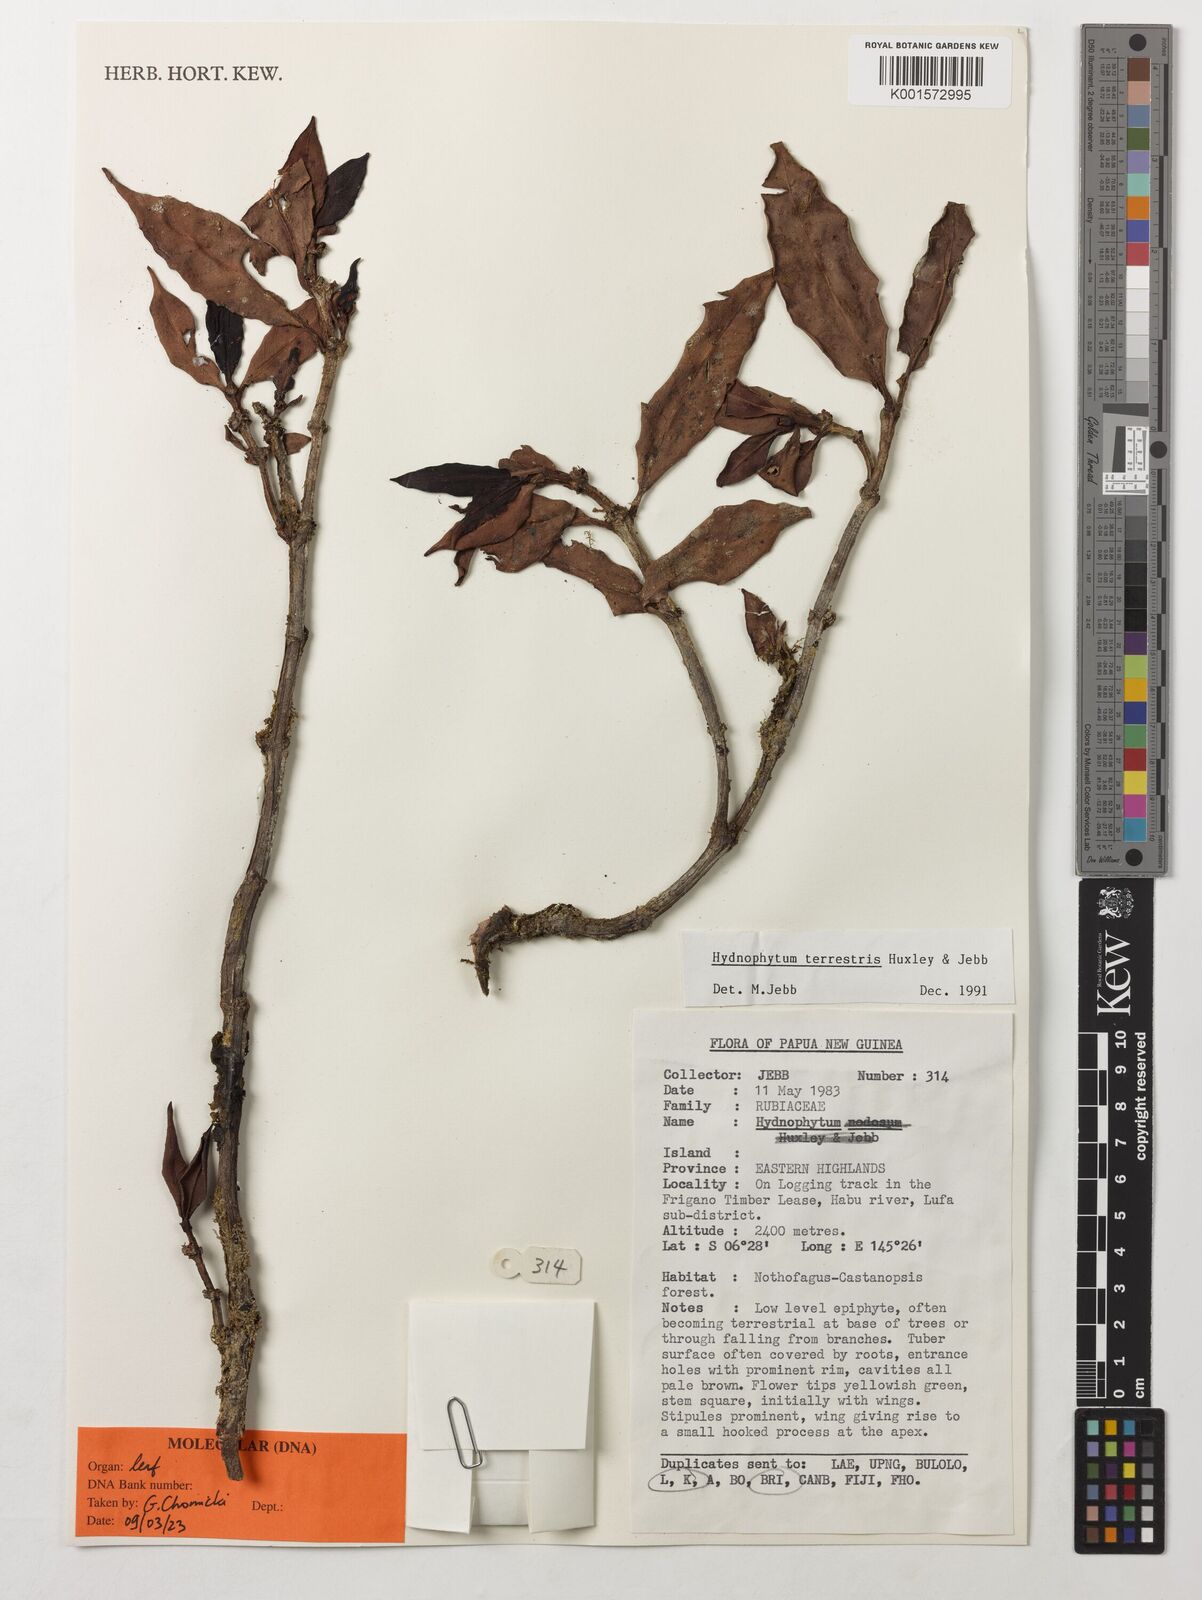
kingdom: Plantae
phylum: Tracheophyta
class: Magnoliopsida
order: Gentianales
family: Rubiaceae
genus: Hydnophytum
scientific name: Hydnophytum terrestris
